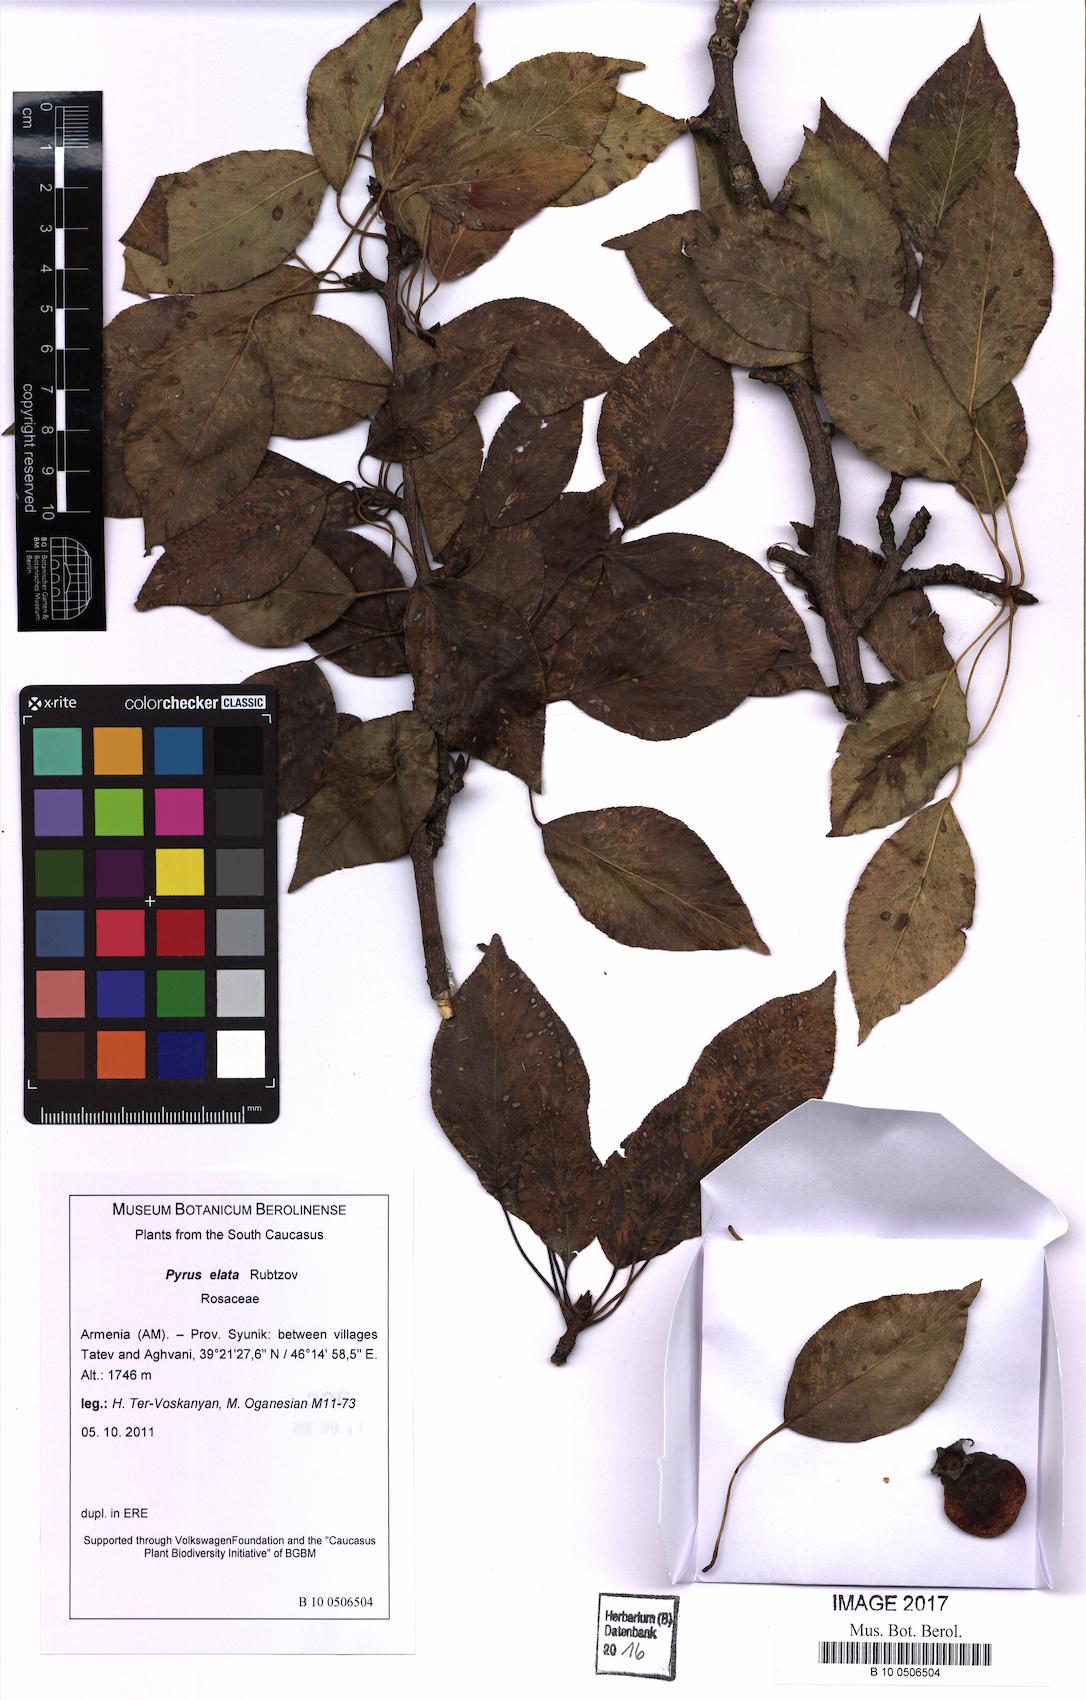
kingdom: Plantae
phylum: Tracheophyta
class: Magnoliopsida
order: Rosales
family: Rosaceae
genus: Pyrus
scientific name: Pyrus communis
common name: Pear
